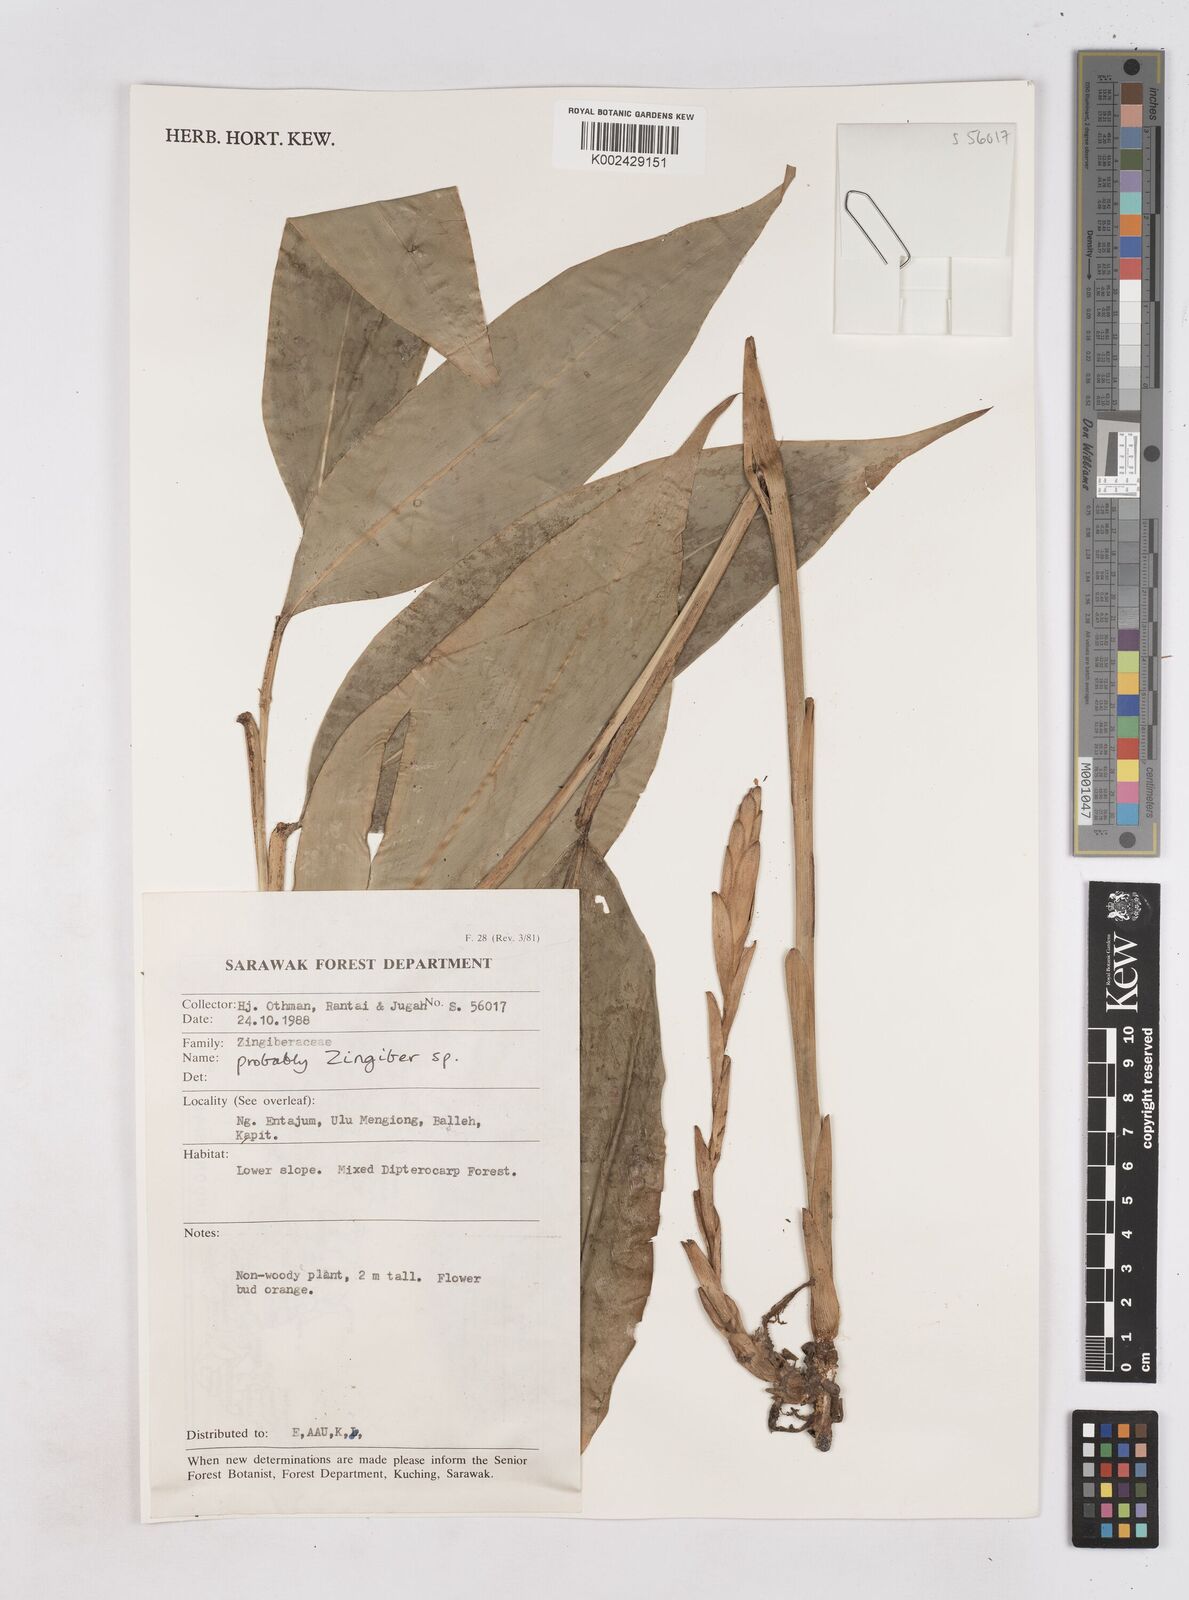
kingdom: Plantae
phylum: Tracheophyta
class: Liliopsida
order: Zingiberales
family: Zingiberaceae
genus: Zingiber
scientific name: Zingiber
